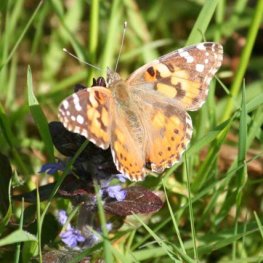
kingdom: Animalia
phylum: Arthropoda
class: Insecta
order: Lepidoptera
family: Nymphalidae
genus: Vanessa
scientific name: Vanessa cardui
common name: Painted Lady
